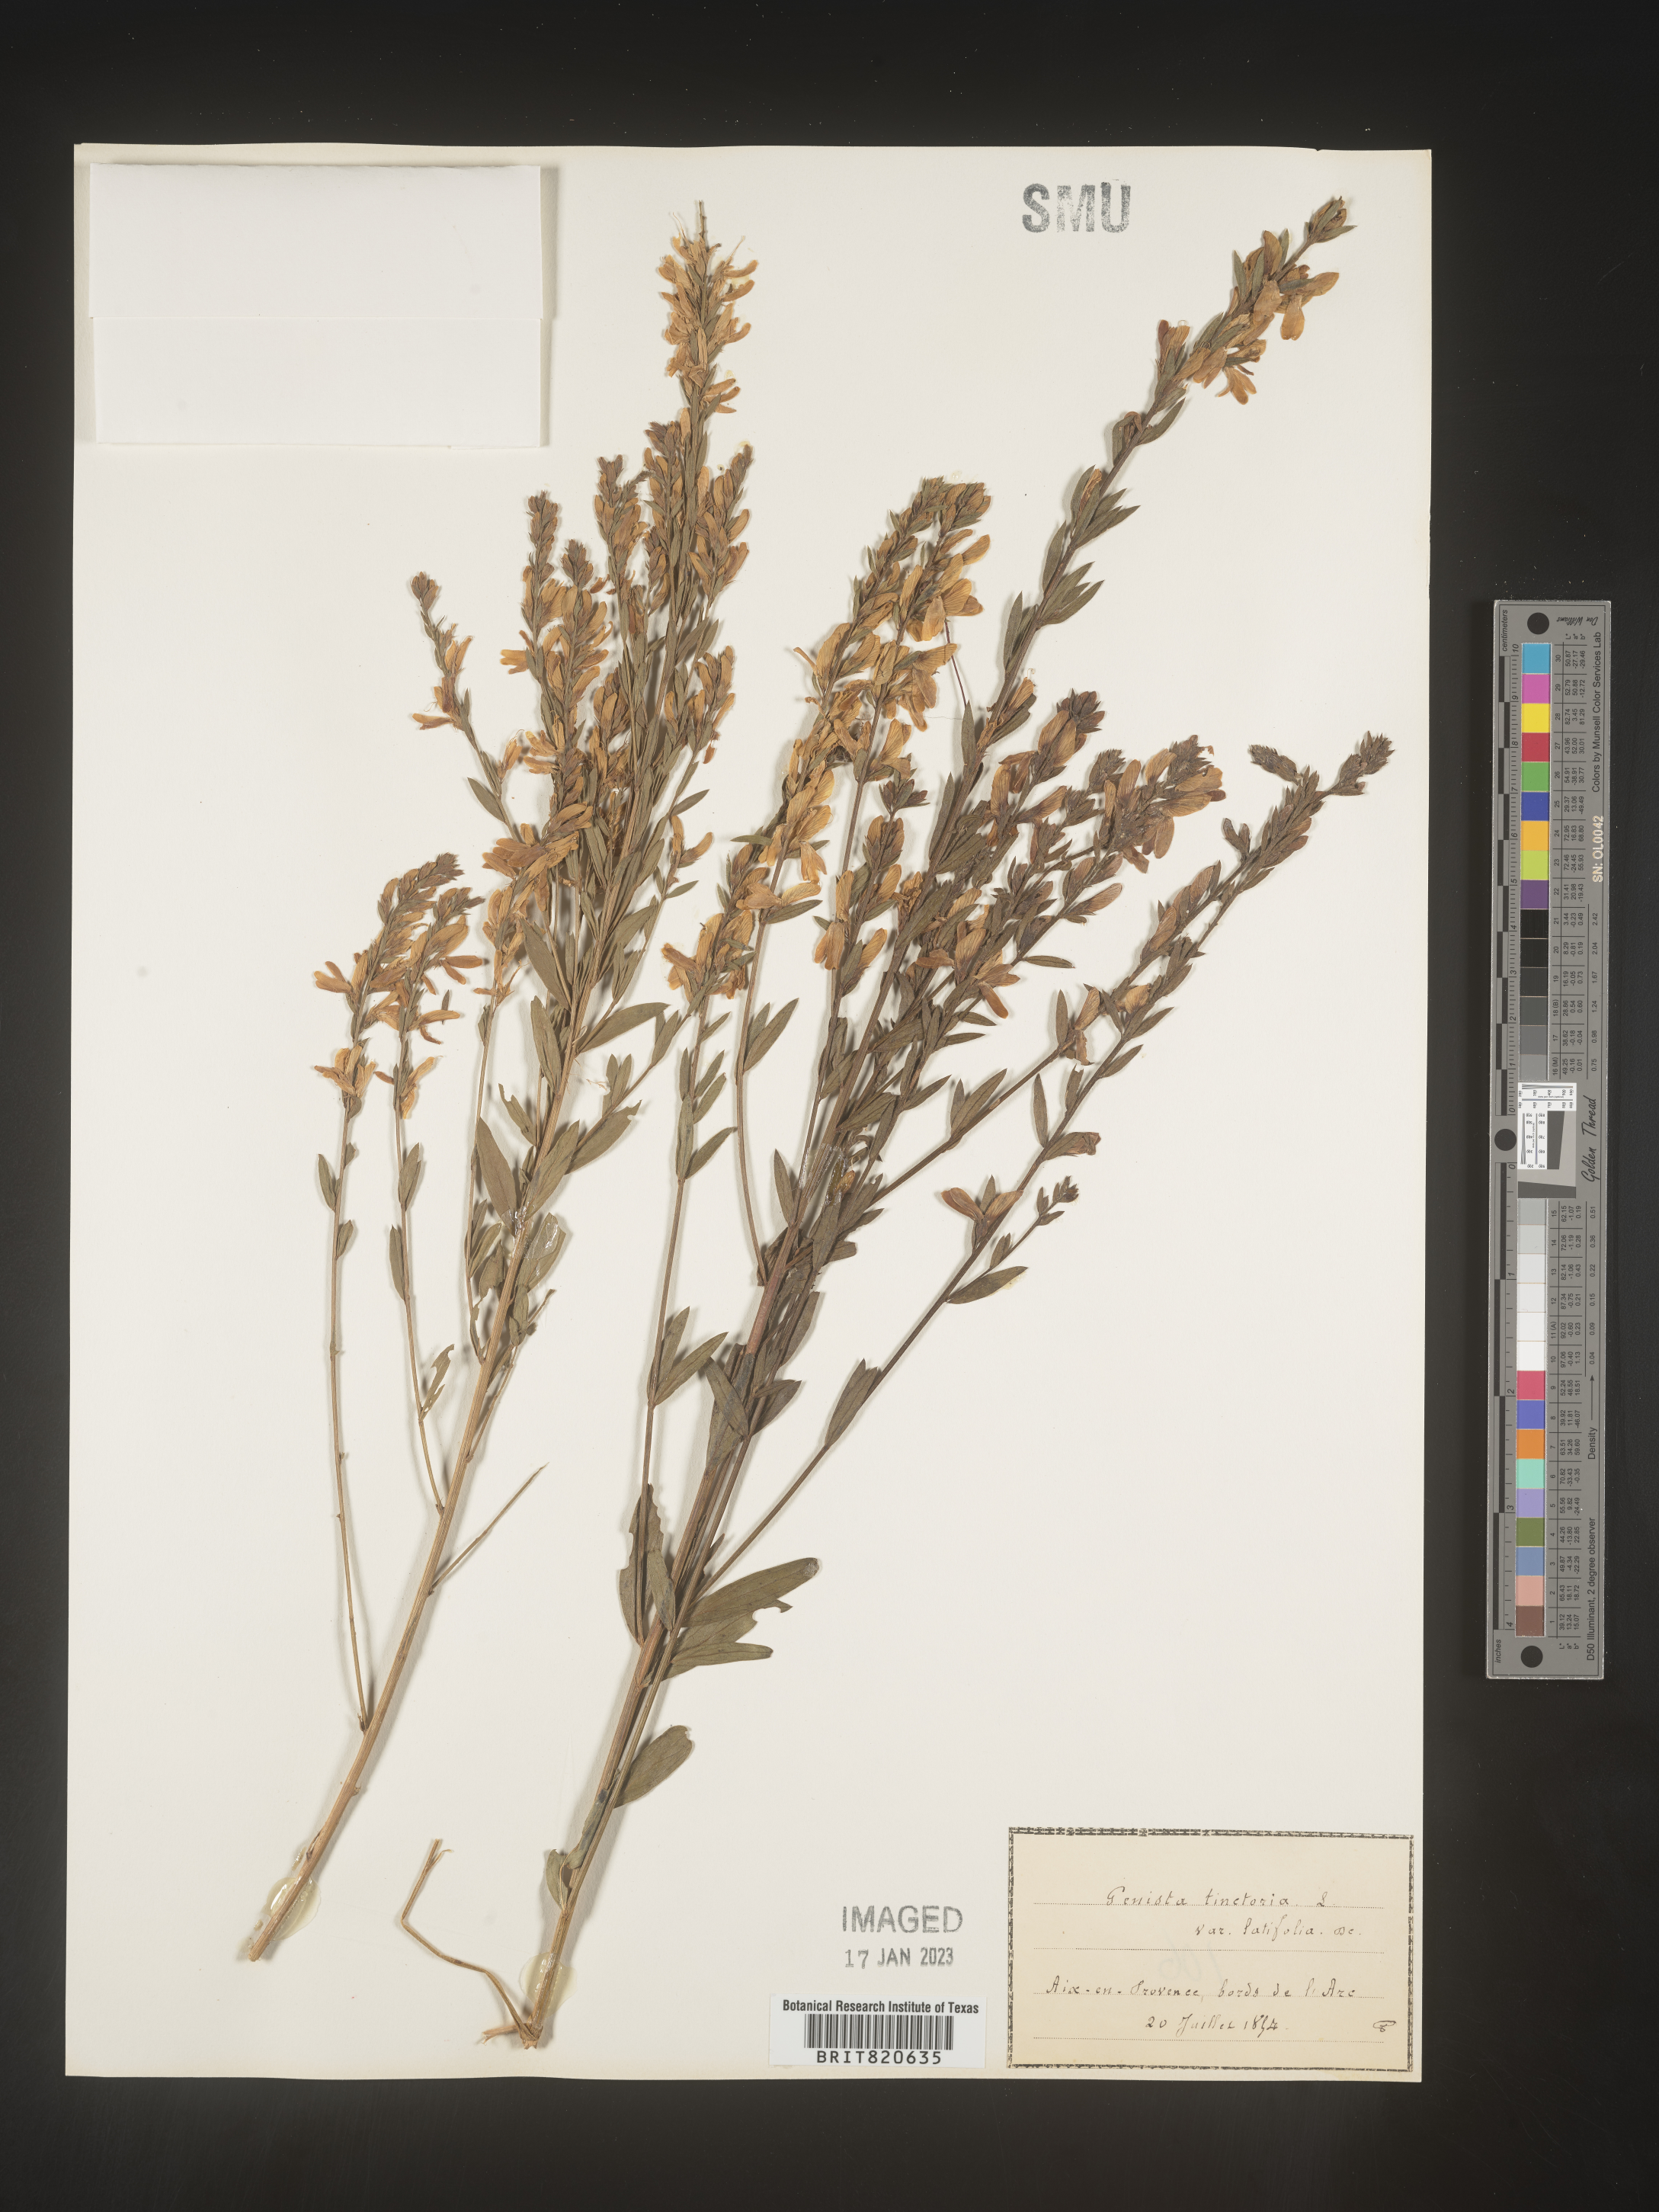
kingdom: Plantae
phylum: Tracheophyta
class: Magnoliopsida
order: Fabales
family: Fabaceae
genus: Genista
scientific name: Genista tinctoria
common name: Dyer's greenweed
